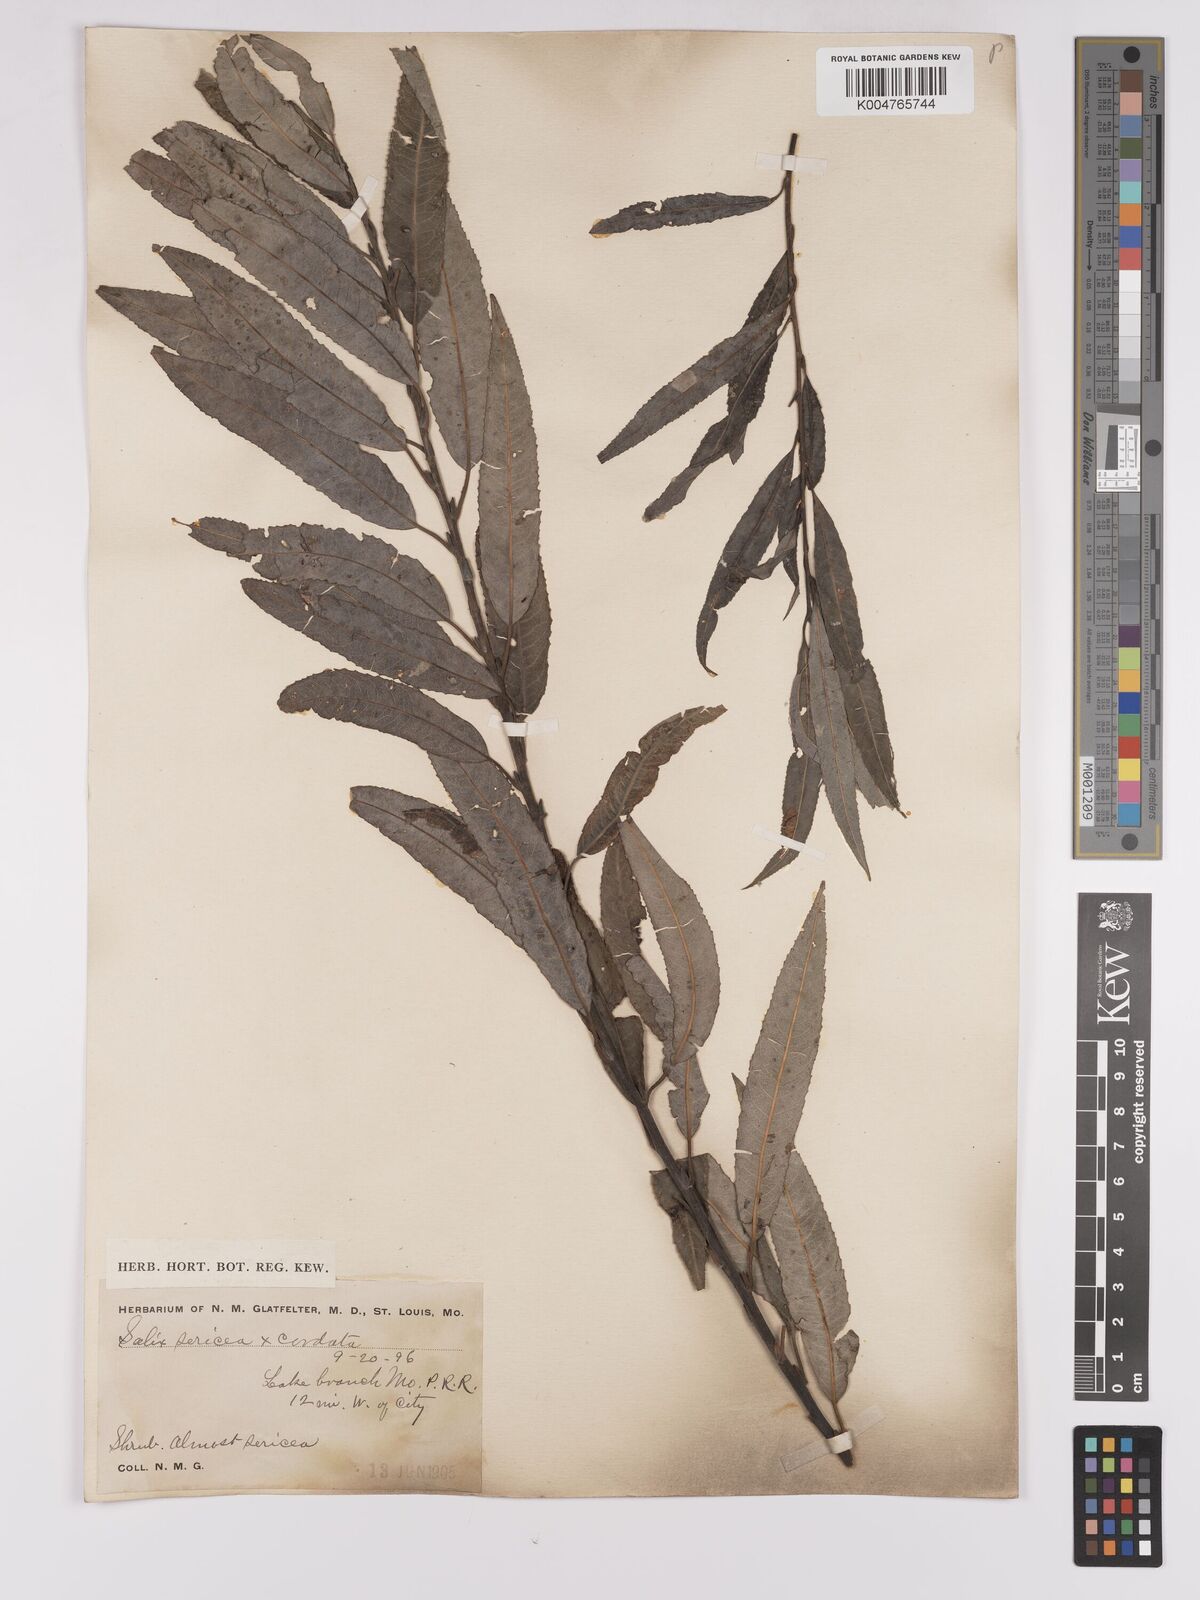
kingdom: Plantae
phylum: Tracheophyta
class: Magnoliopsida
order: Malpighiales
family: Salicaceae
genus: Salix
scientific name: Salix cordata
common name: Heart-leaf willow
